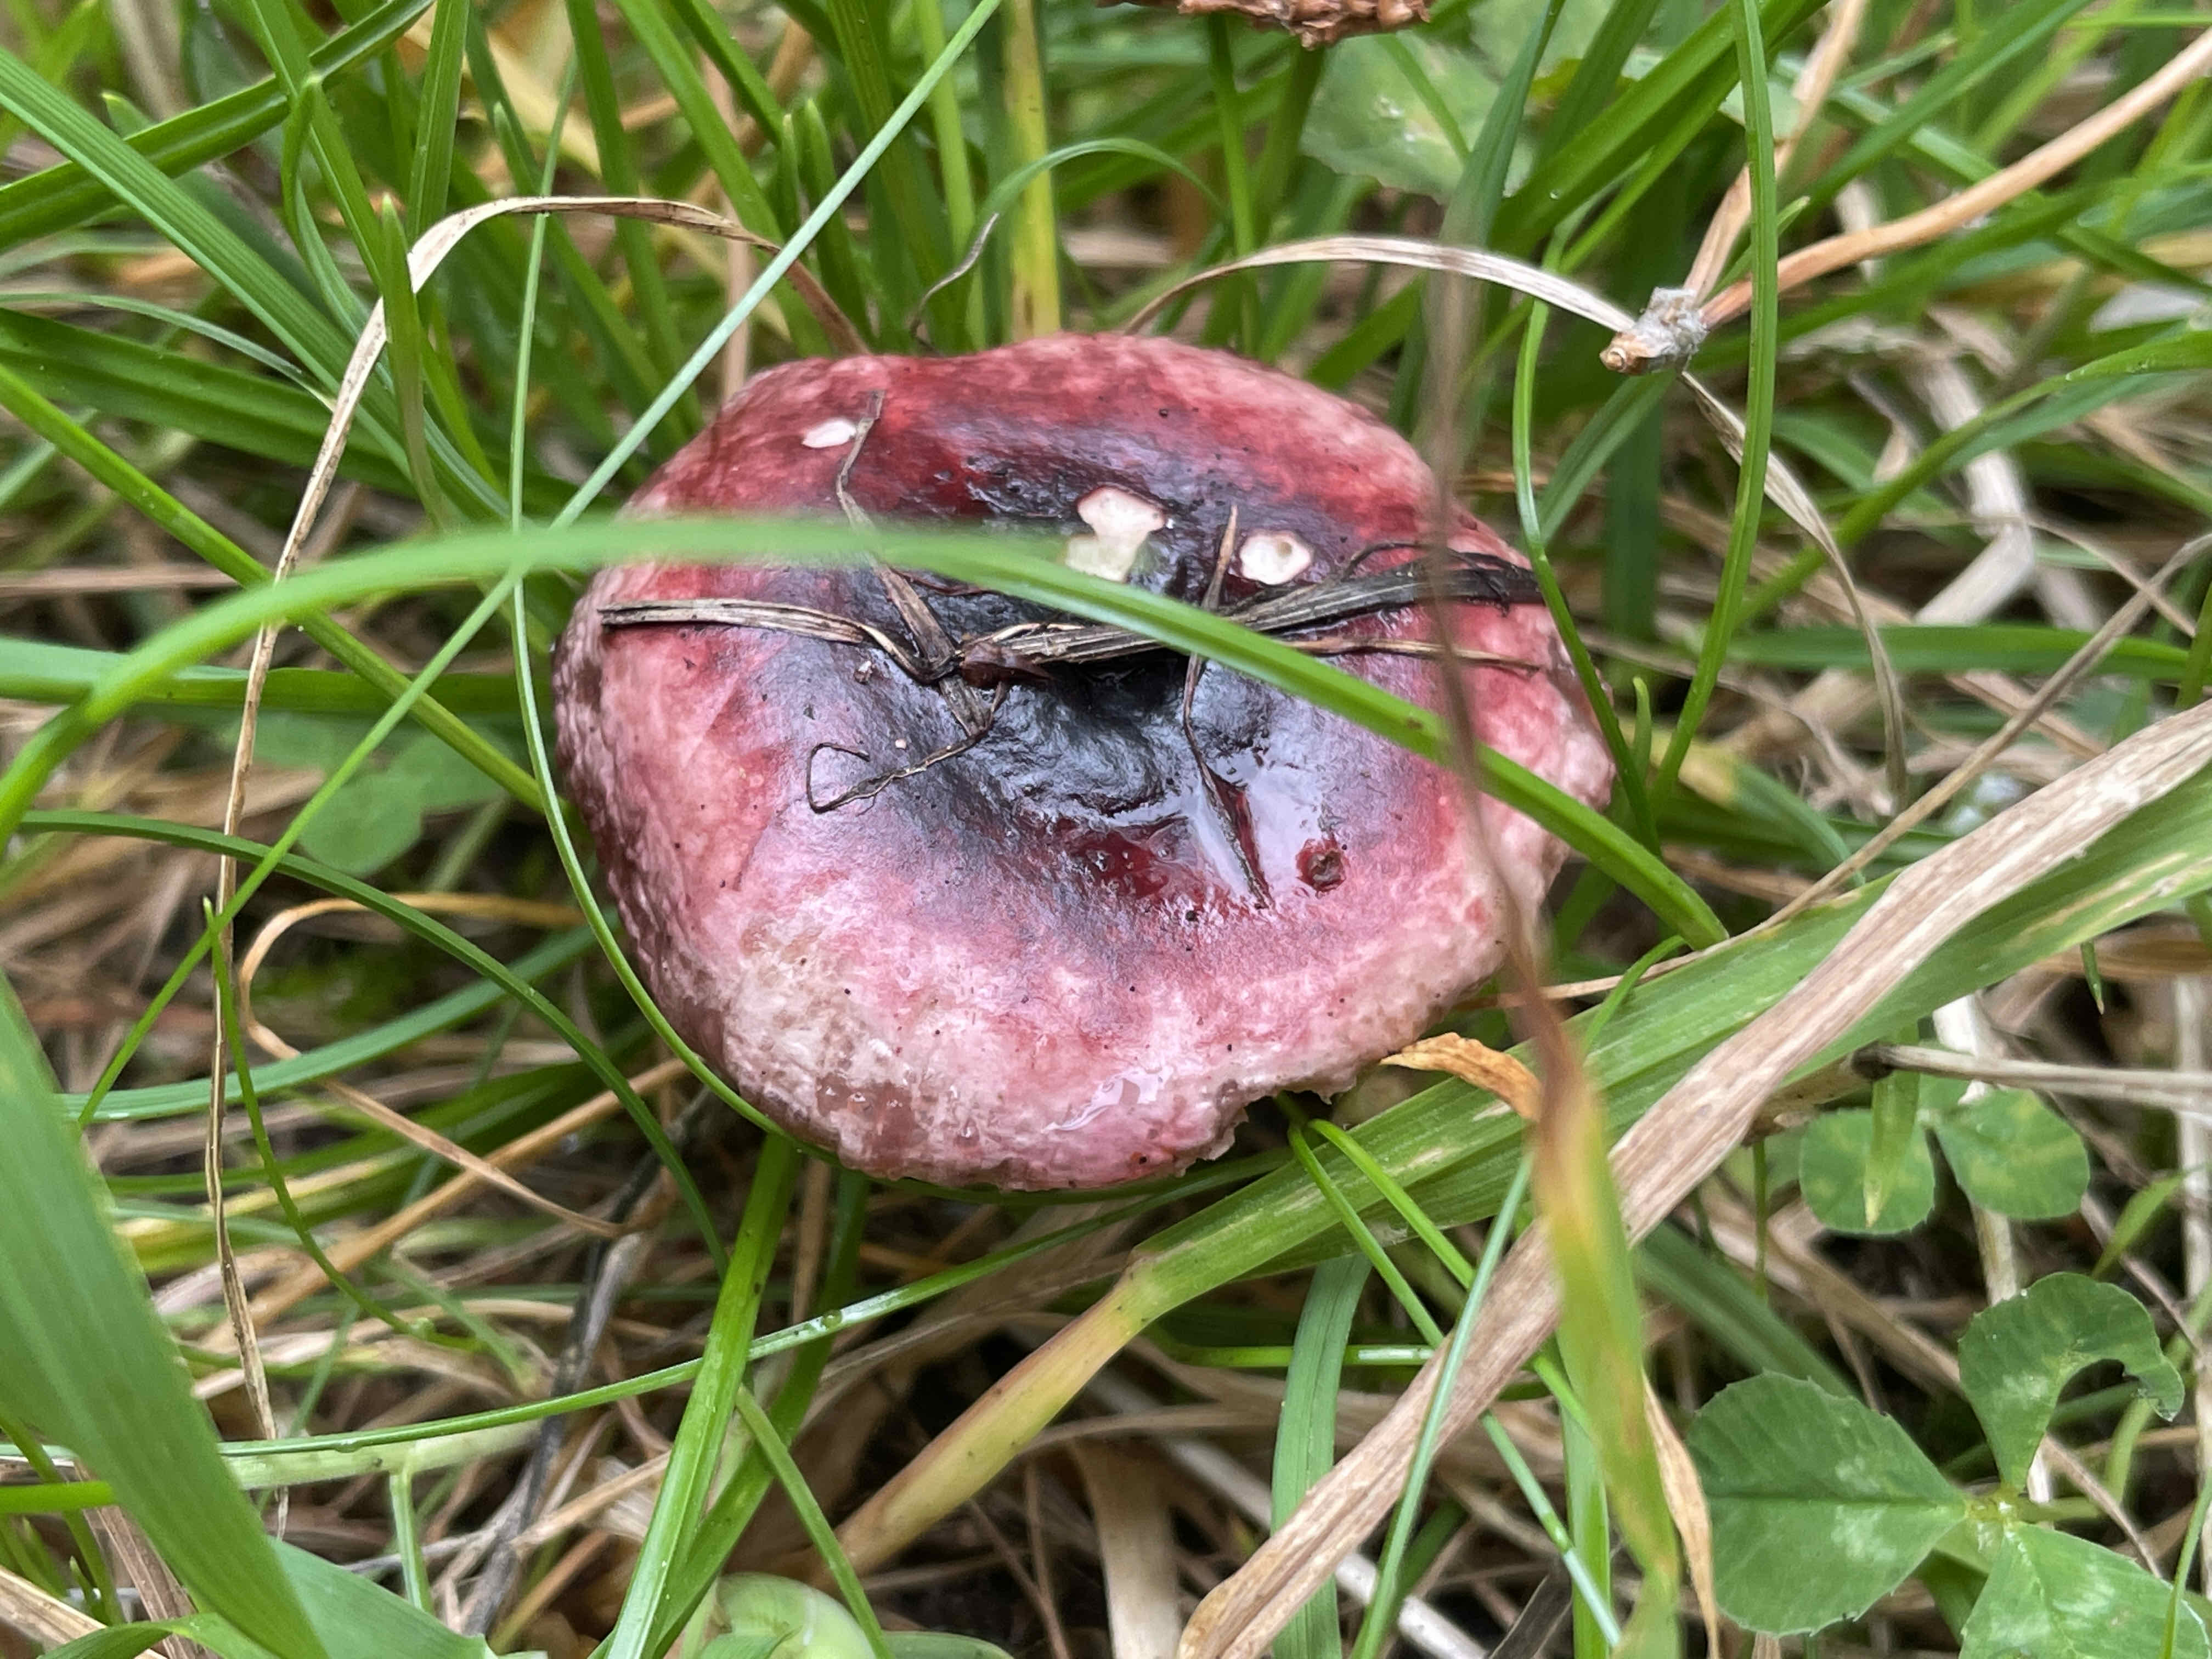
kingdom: Fungi
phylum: Basidiomycota
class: Agaricomycetes
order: Russulales
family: Russulaceae
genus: Russula
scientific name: Russula cessans
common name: fyrre-skørhat
